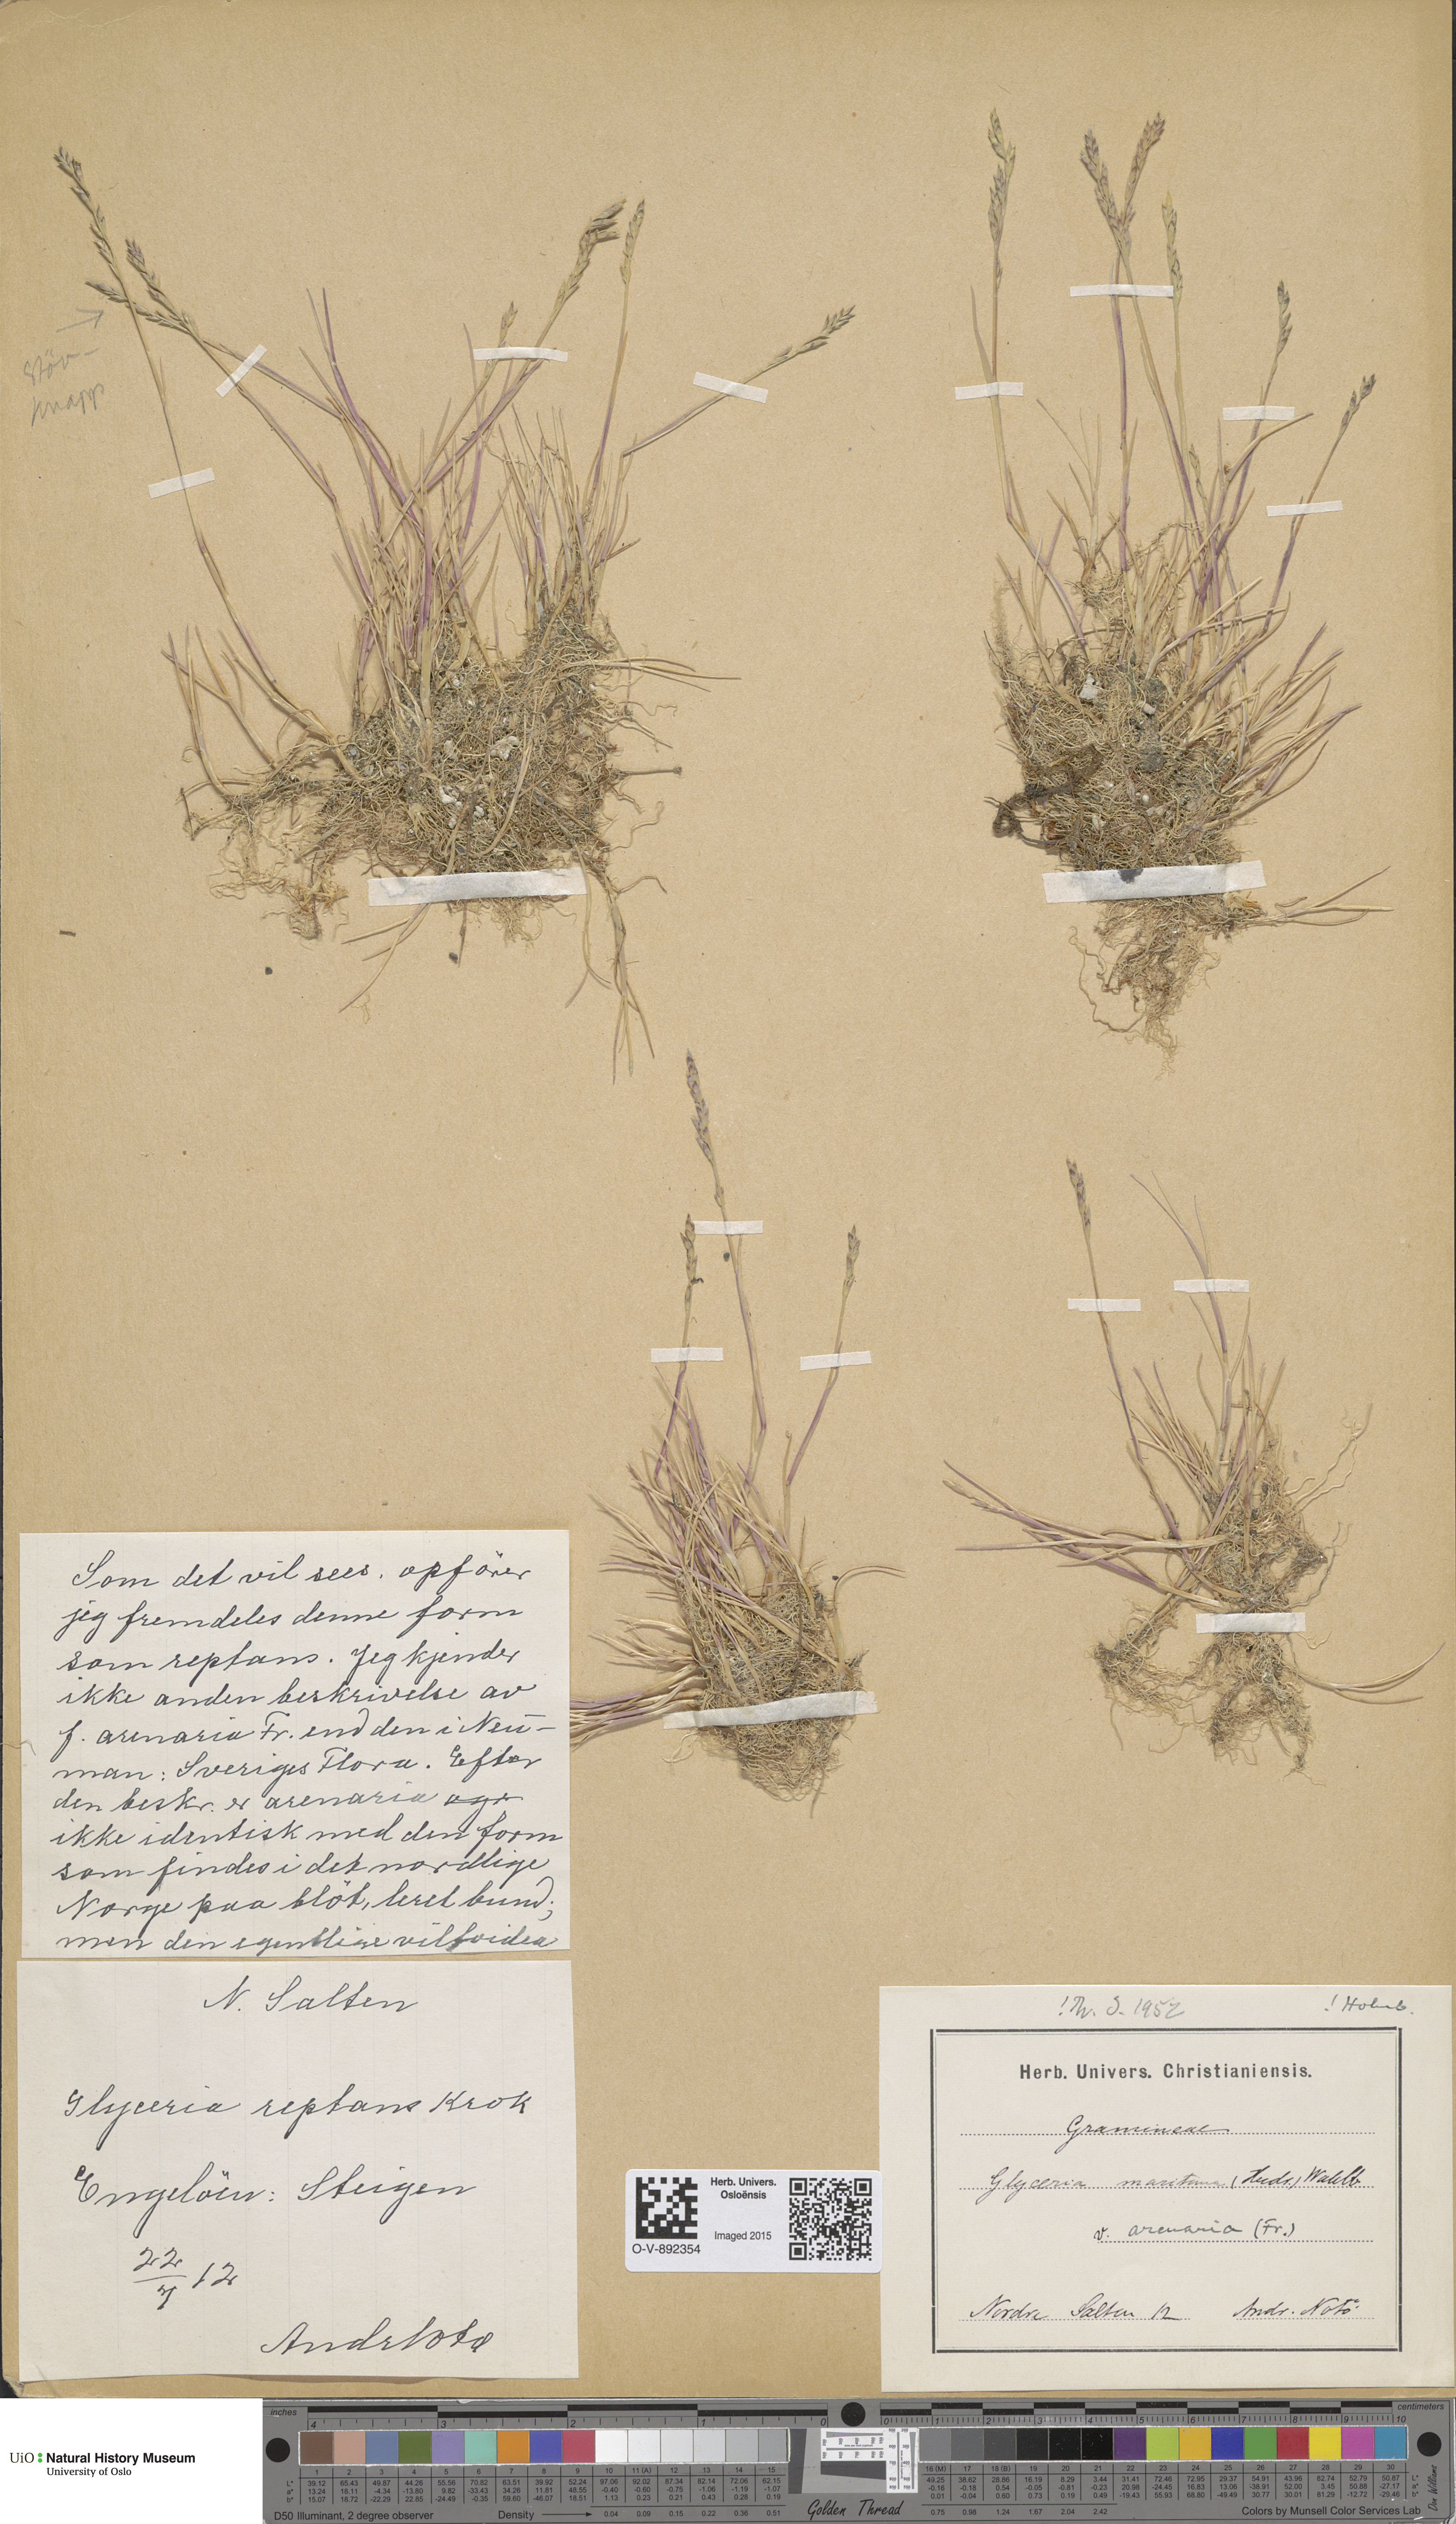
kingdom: Plantae
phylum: Tracheophyta
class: Liliopsida
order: Poales
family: Poaceae
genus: Puccinellia
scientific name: Puccinellia maritima
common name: Common saltmarsh grass
